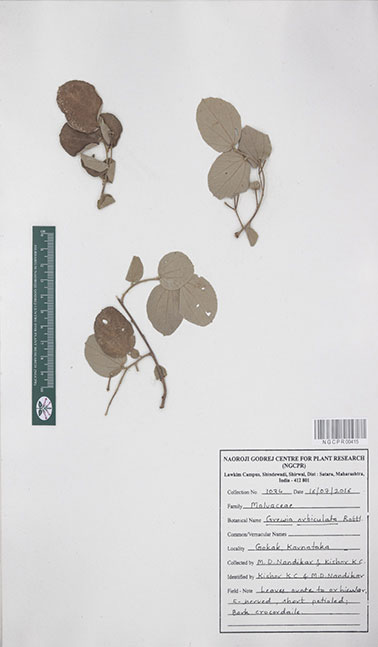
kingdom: Plantae
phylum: Tracheophyta
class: Magnoliopsida
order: Malvales
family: Malvaceae
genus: Grewia
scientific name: Grewia orbiculata
